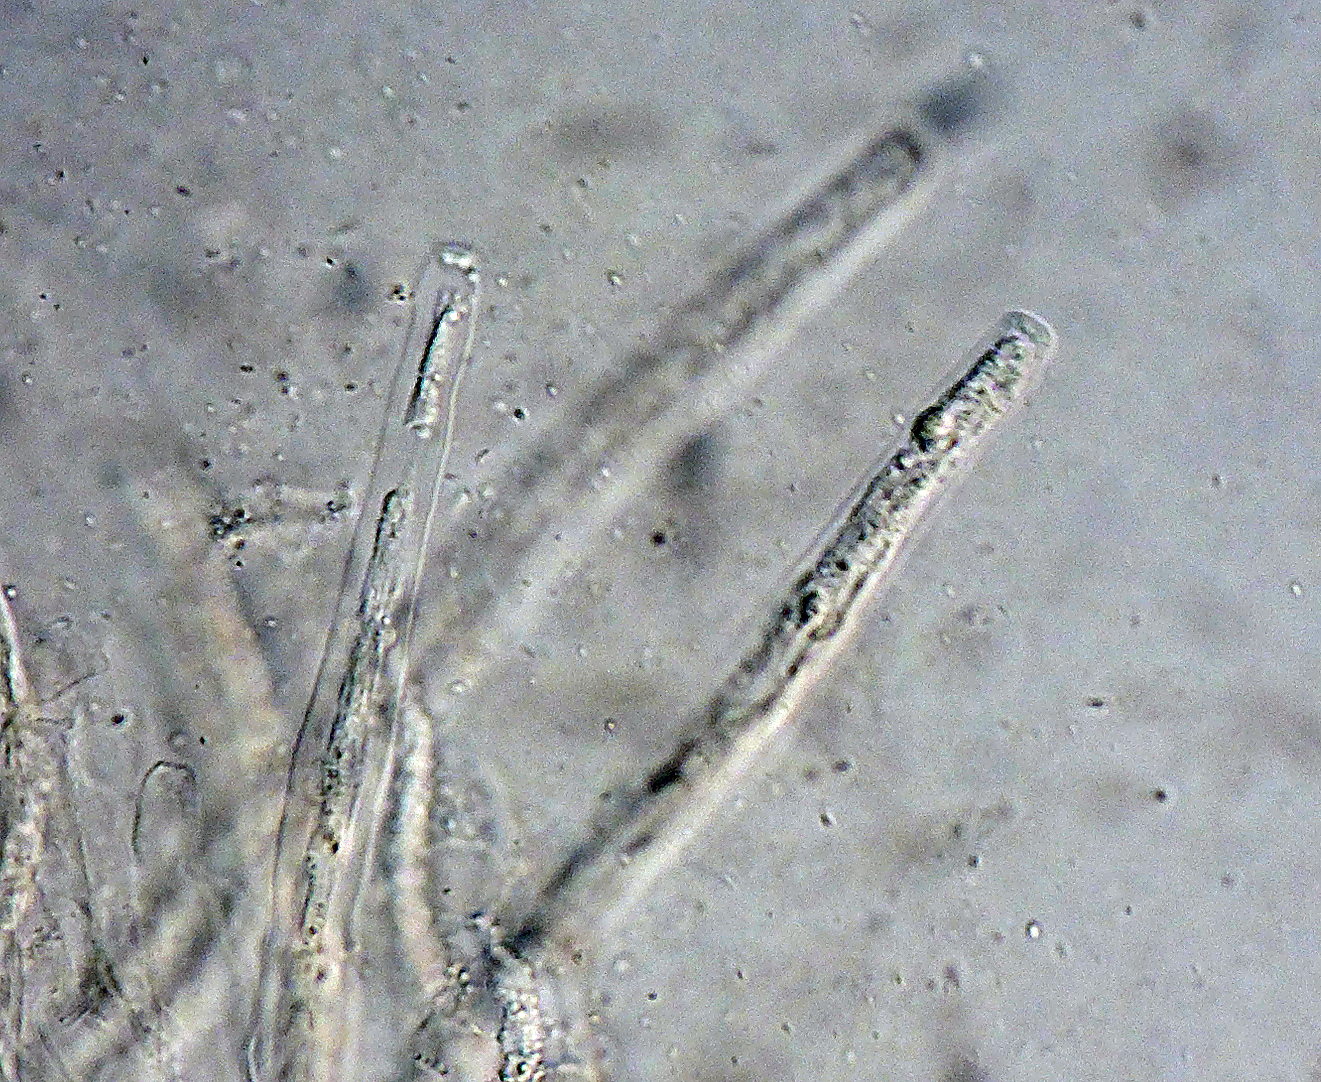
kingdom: Fungi
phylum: Ascomycota
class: Sordariomycetes
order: Sordariales
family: Neoschizotheciaceae
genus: Cercophora
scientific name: Cercophora septentrionalis
